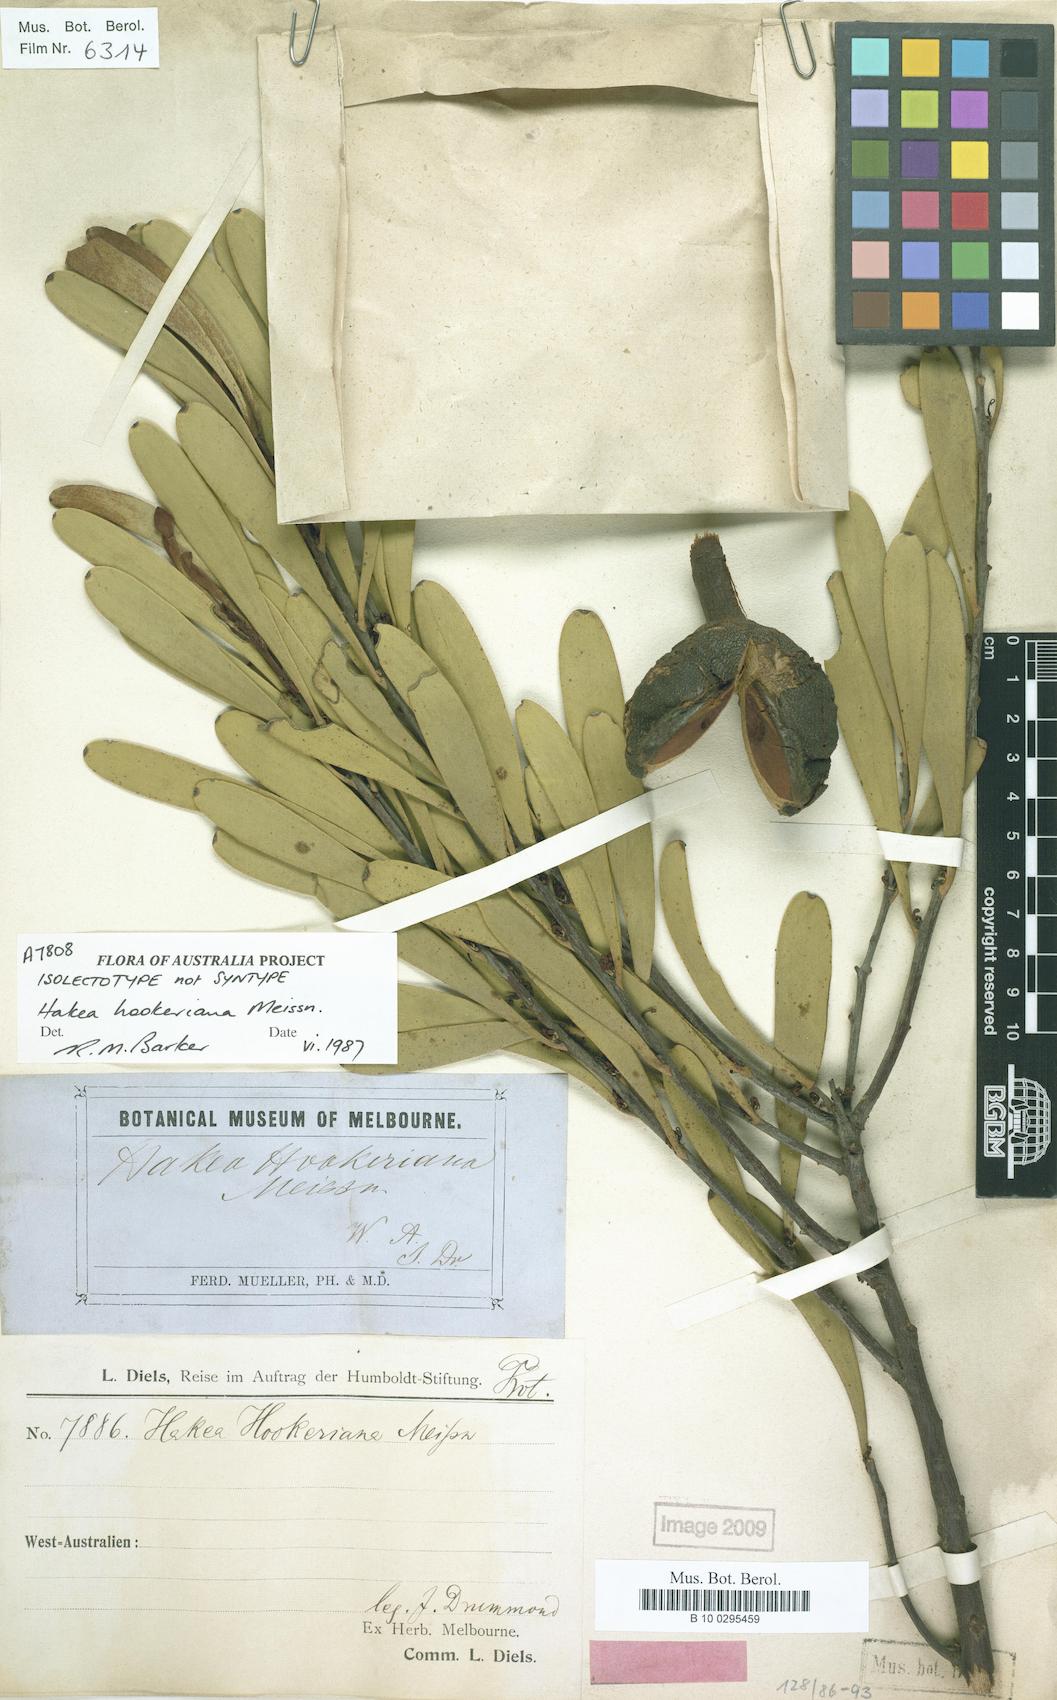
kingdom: Plantae
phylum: Tracheophyta
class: Magnoliopsida
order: Proteales
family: Proteaceae
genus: Hakea
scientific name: Hakea hookeriana
